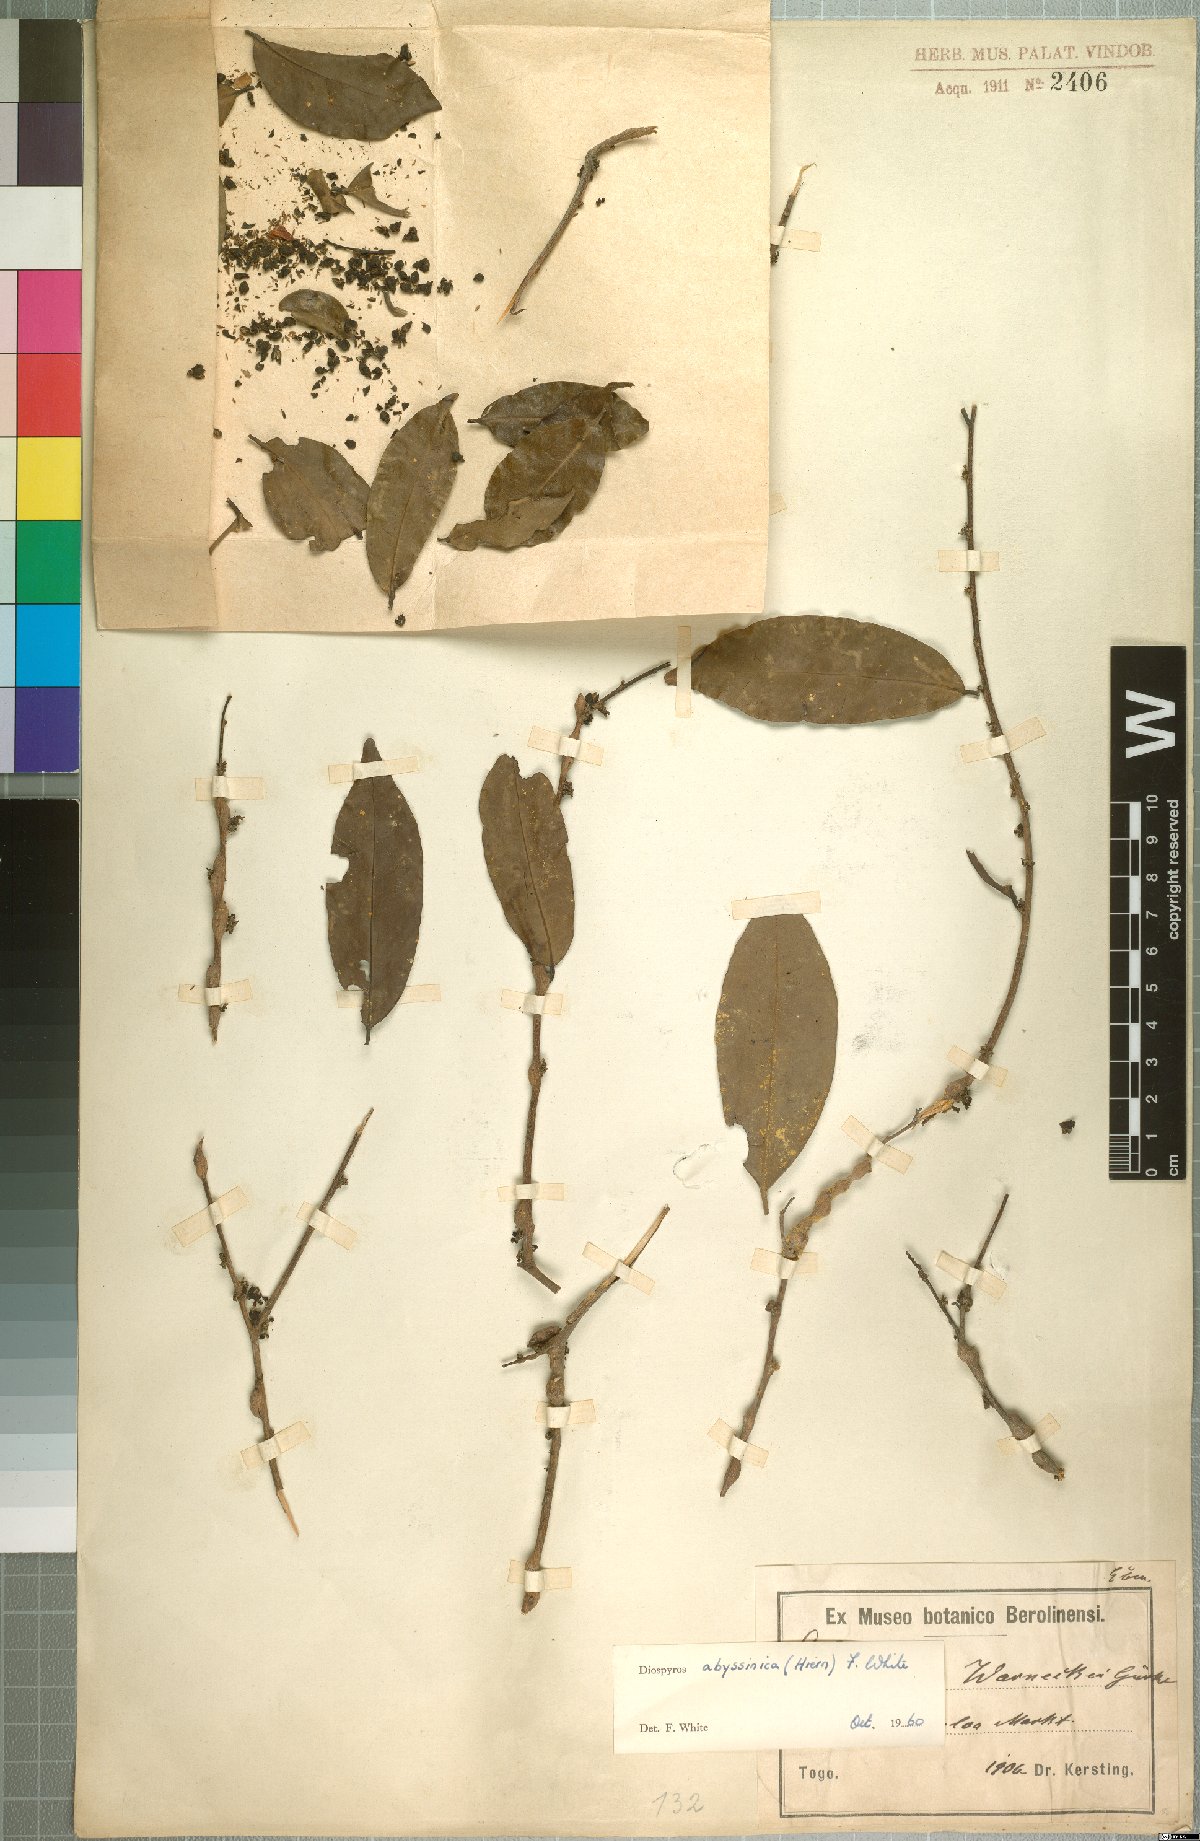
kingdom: Plantae
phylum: Tracheophyta
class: Magnoliopsida
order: Ericales
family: Ebenaceae
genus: Diospyros
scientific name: Diospyros abyssinica
